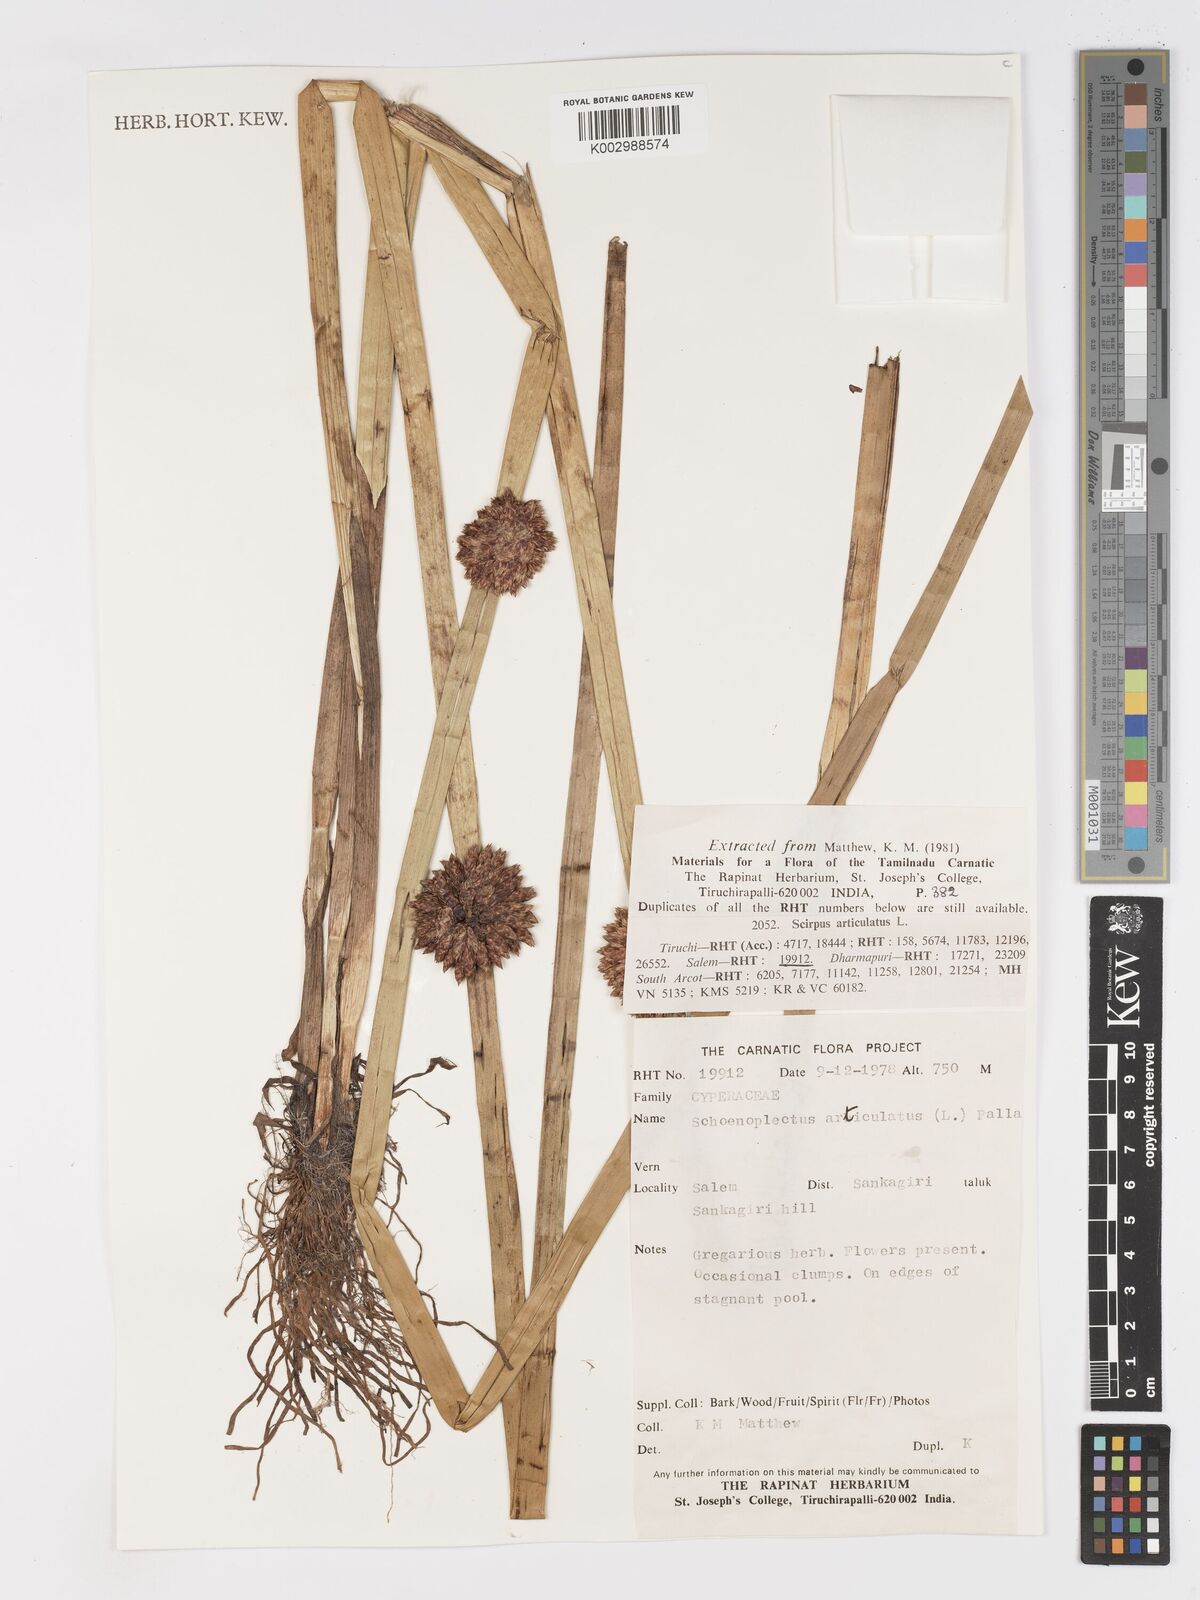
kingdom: Plantae
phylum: Tracheophyta
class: Liliopsida
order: Poales
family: Cyperaceae
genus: Schoenoplectiella
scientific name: Schoenoplectiella articulata
